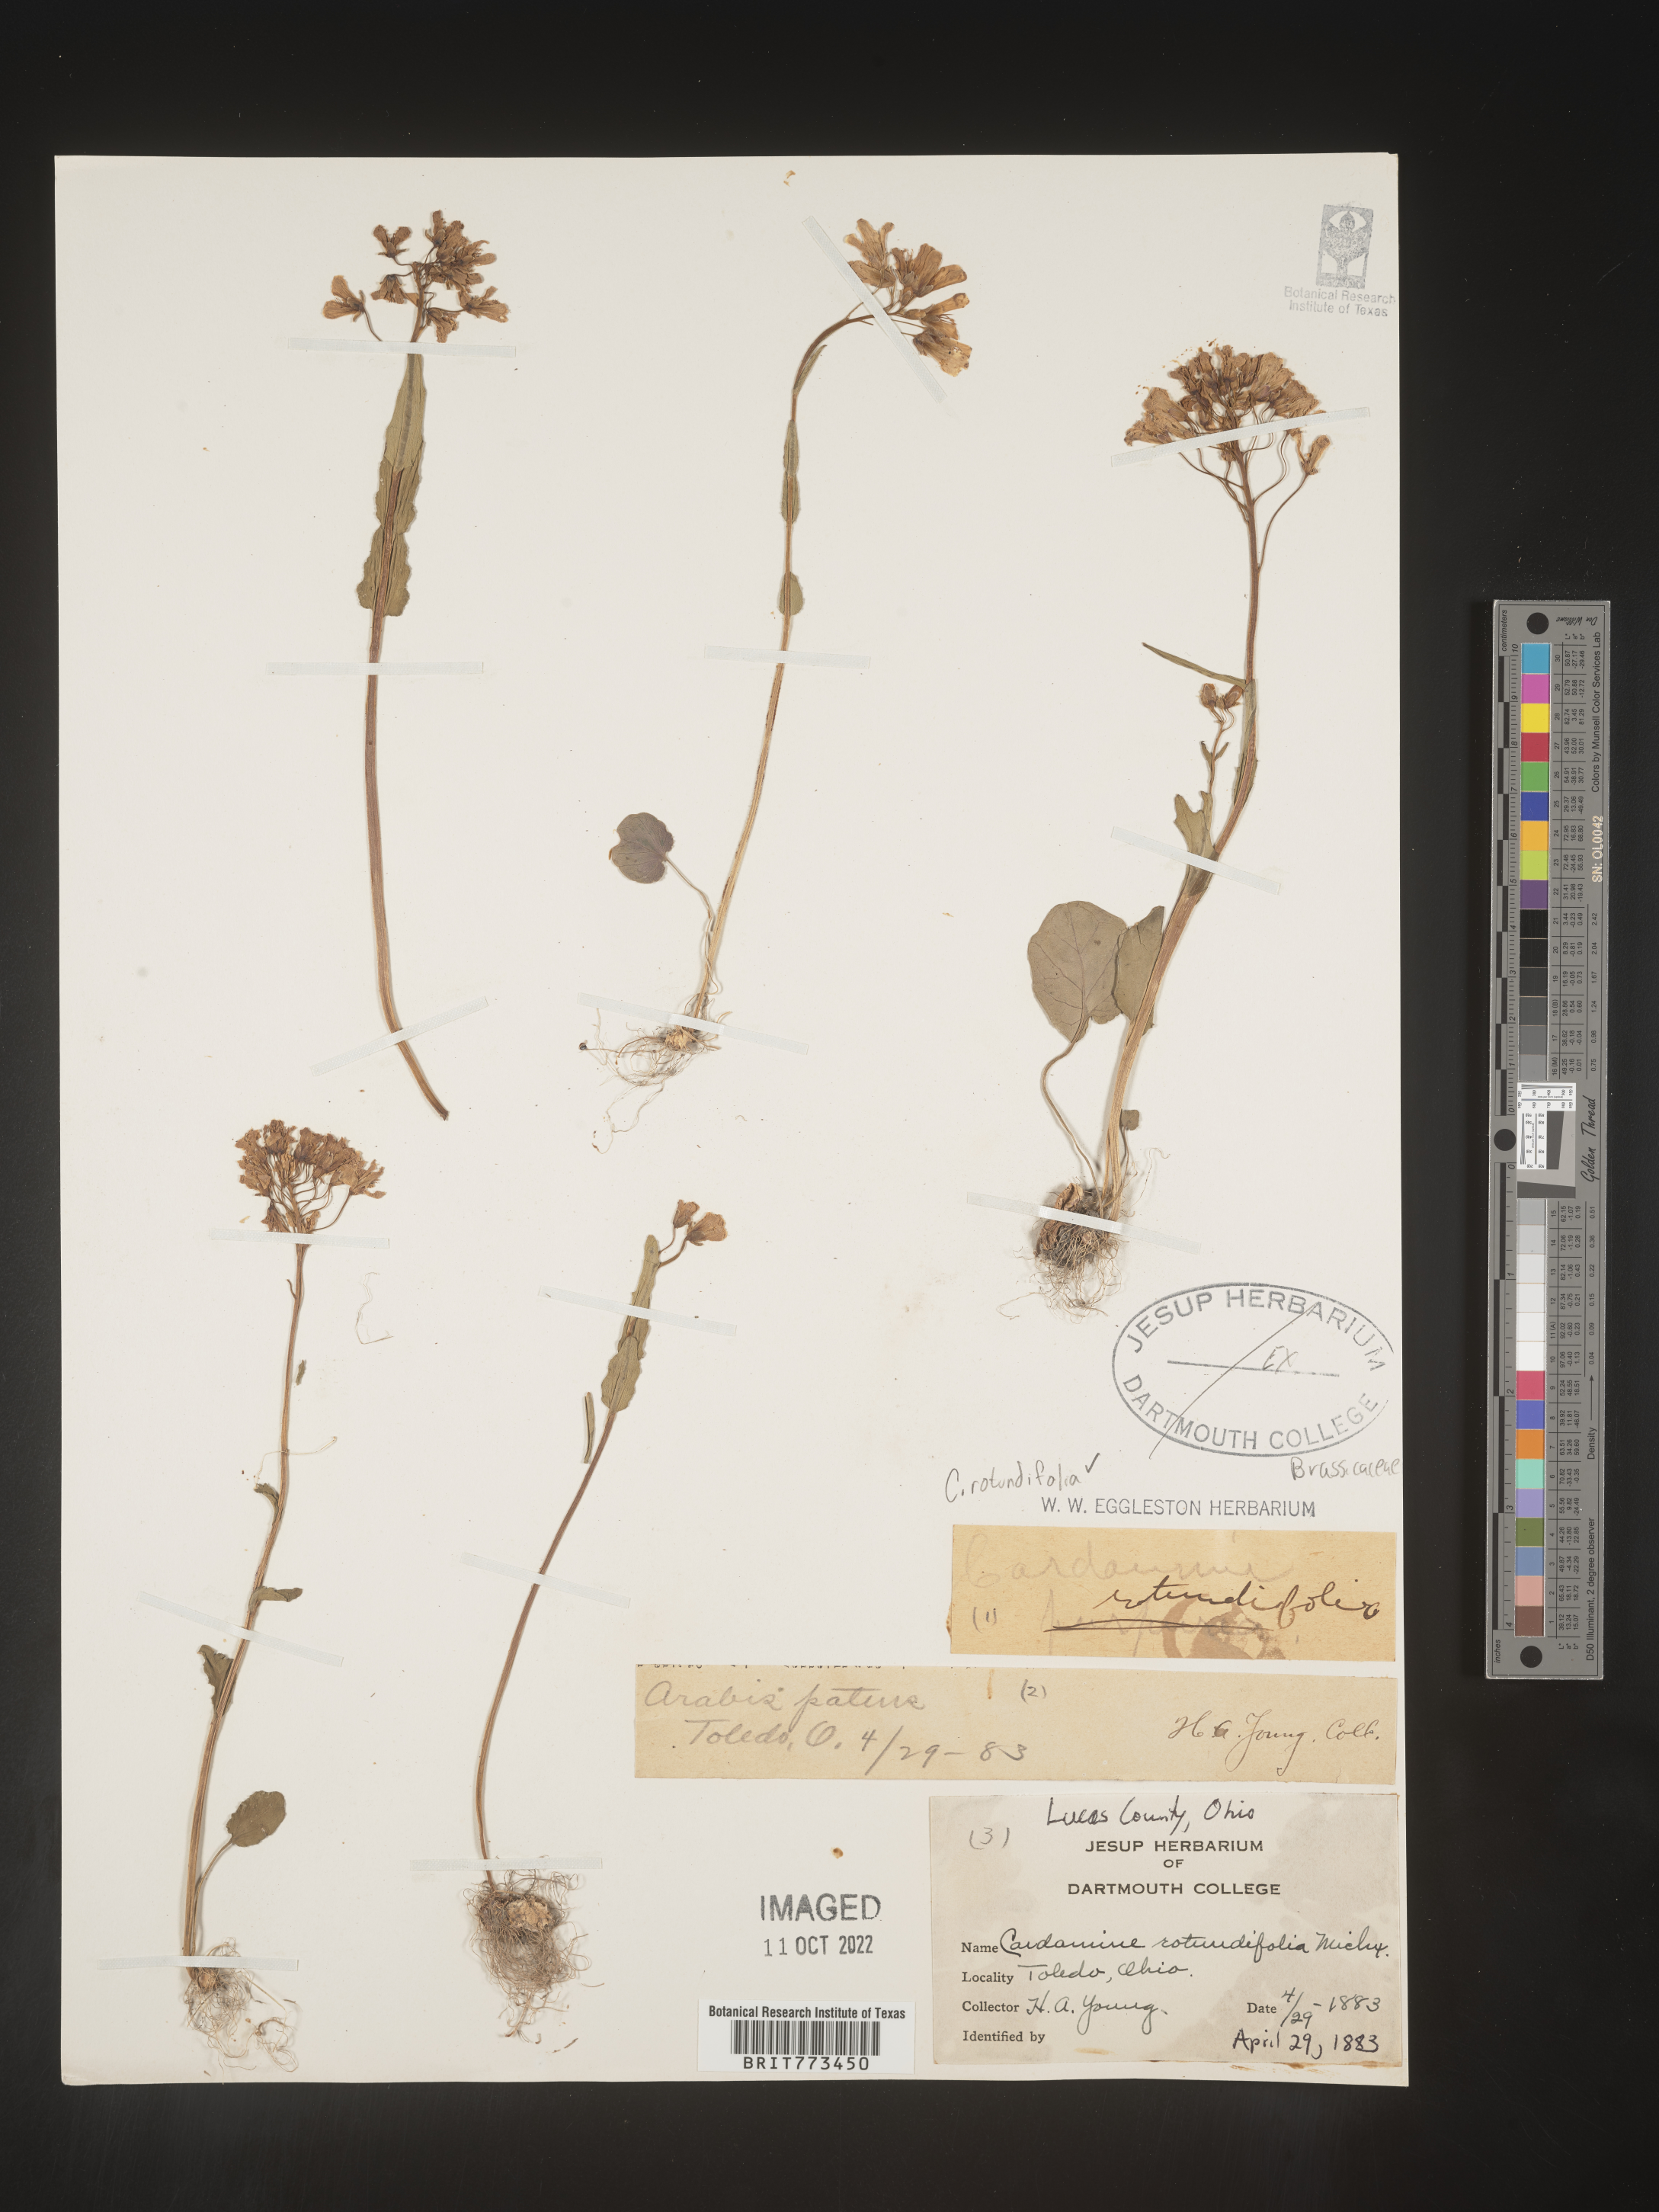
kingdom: Plantae
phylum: Tracheophyta
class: Magnoliopsida
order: Brassicales
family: Brassicaceae
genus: Cardamine
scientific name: Cardamine
